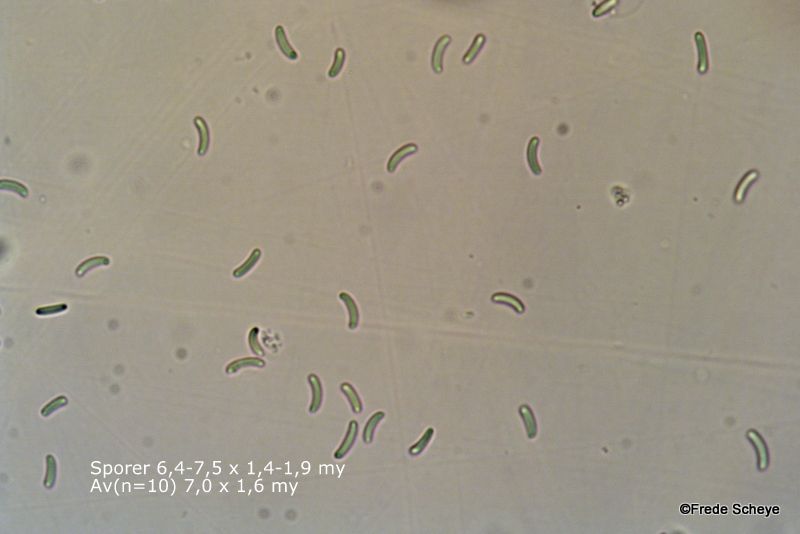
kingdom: Fungi
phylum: Ascomycota
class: Sordariomycetes
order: Xylariales
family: Diatrypaceae
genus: Diatrype
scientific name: Diatrype
